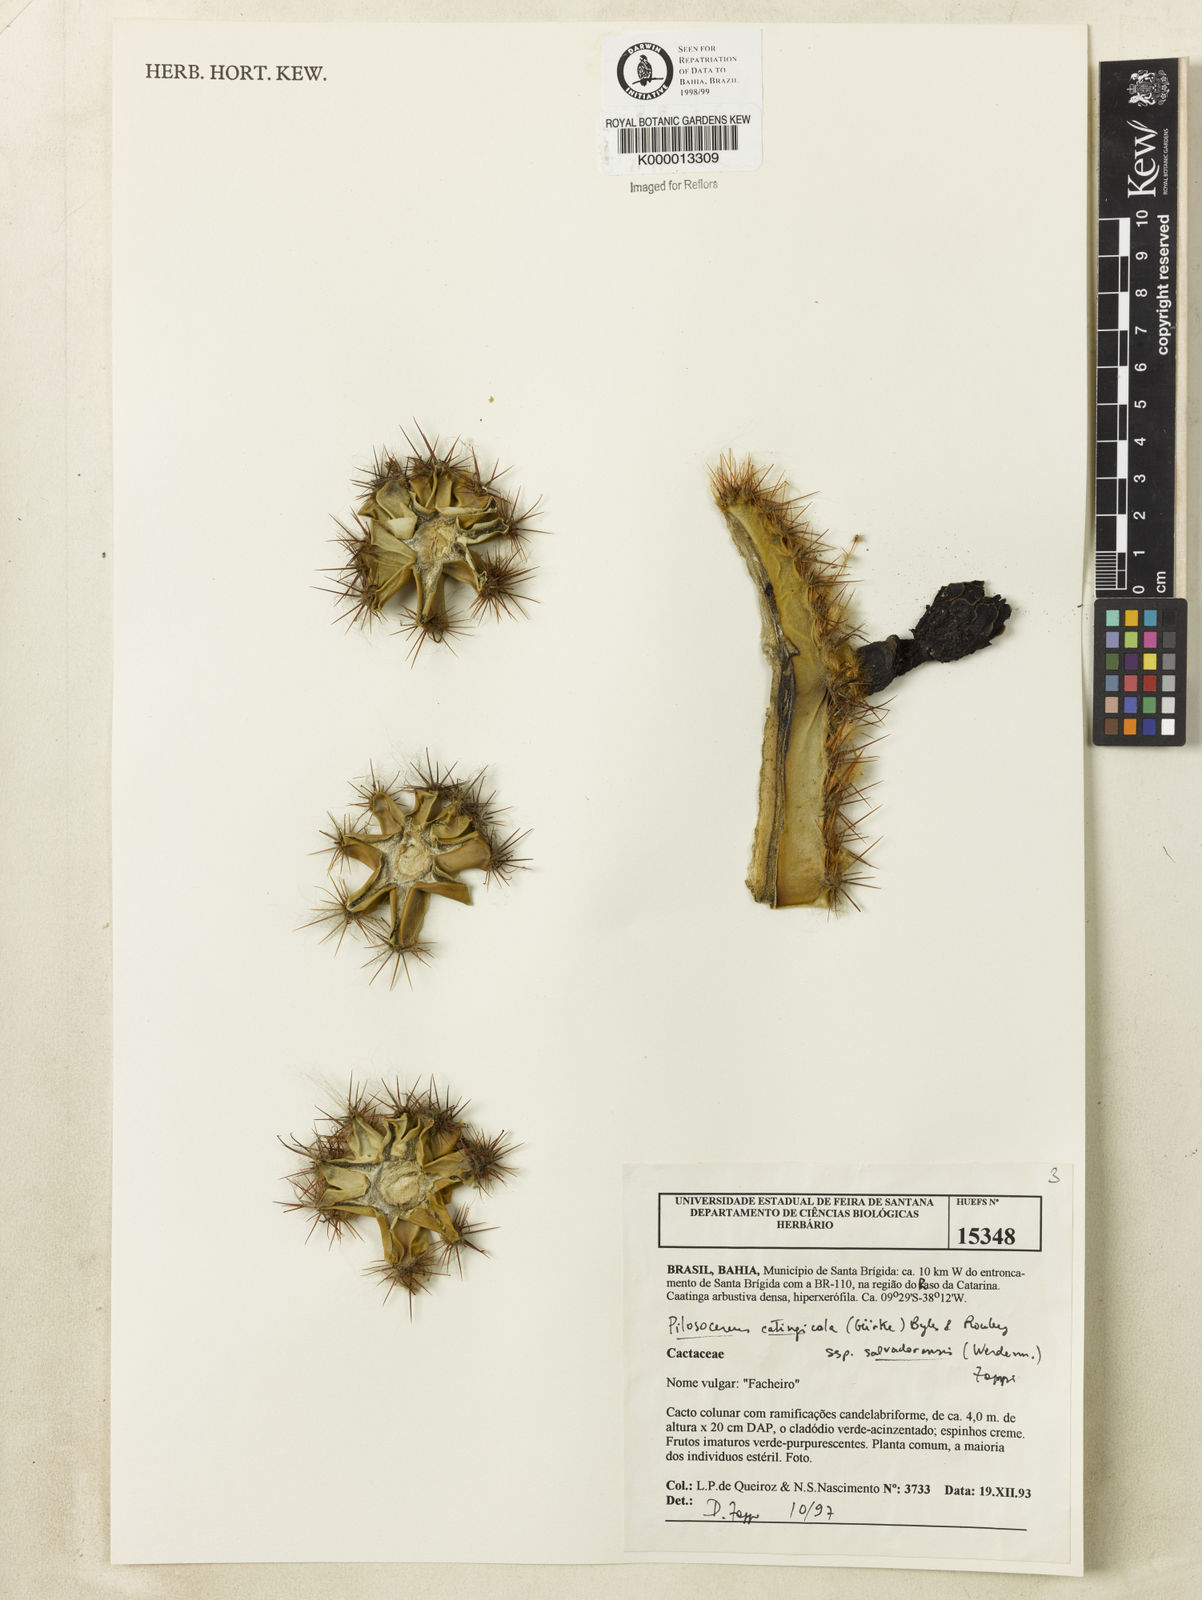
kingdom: Plantae
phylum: Tracheophyta
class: Magnoliopsida
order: Caryophyllales
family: Cactaceae
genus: Pilosocereus
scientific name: Pilosocereus catingicola
